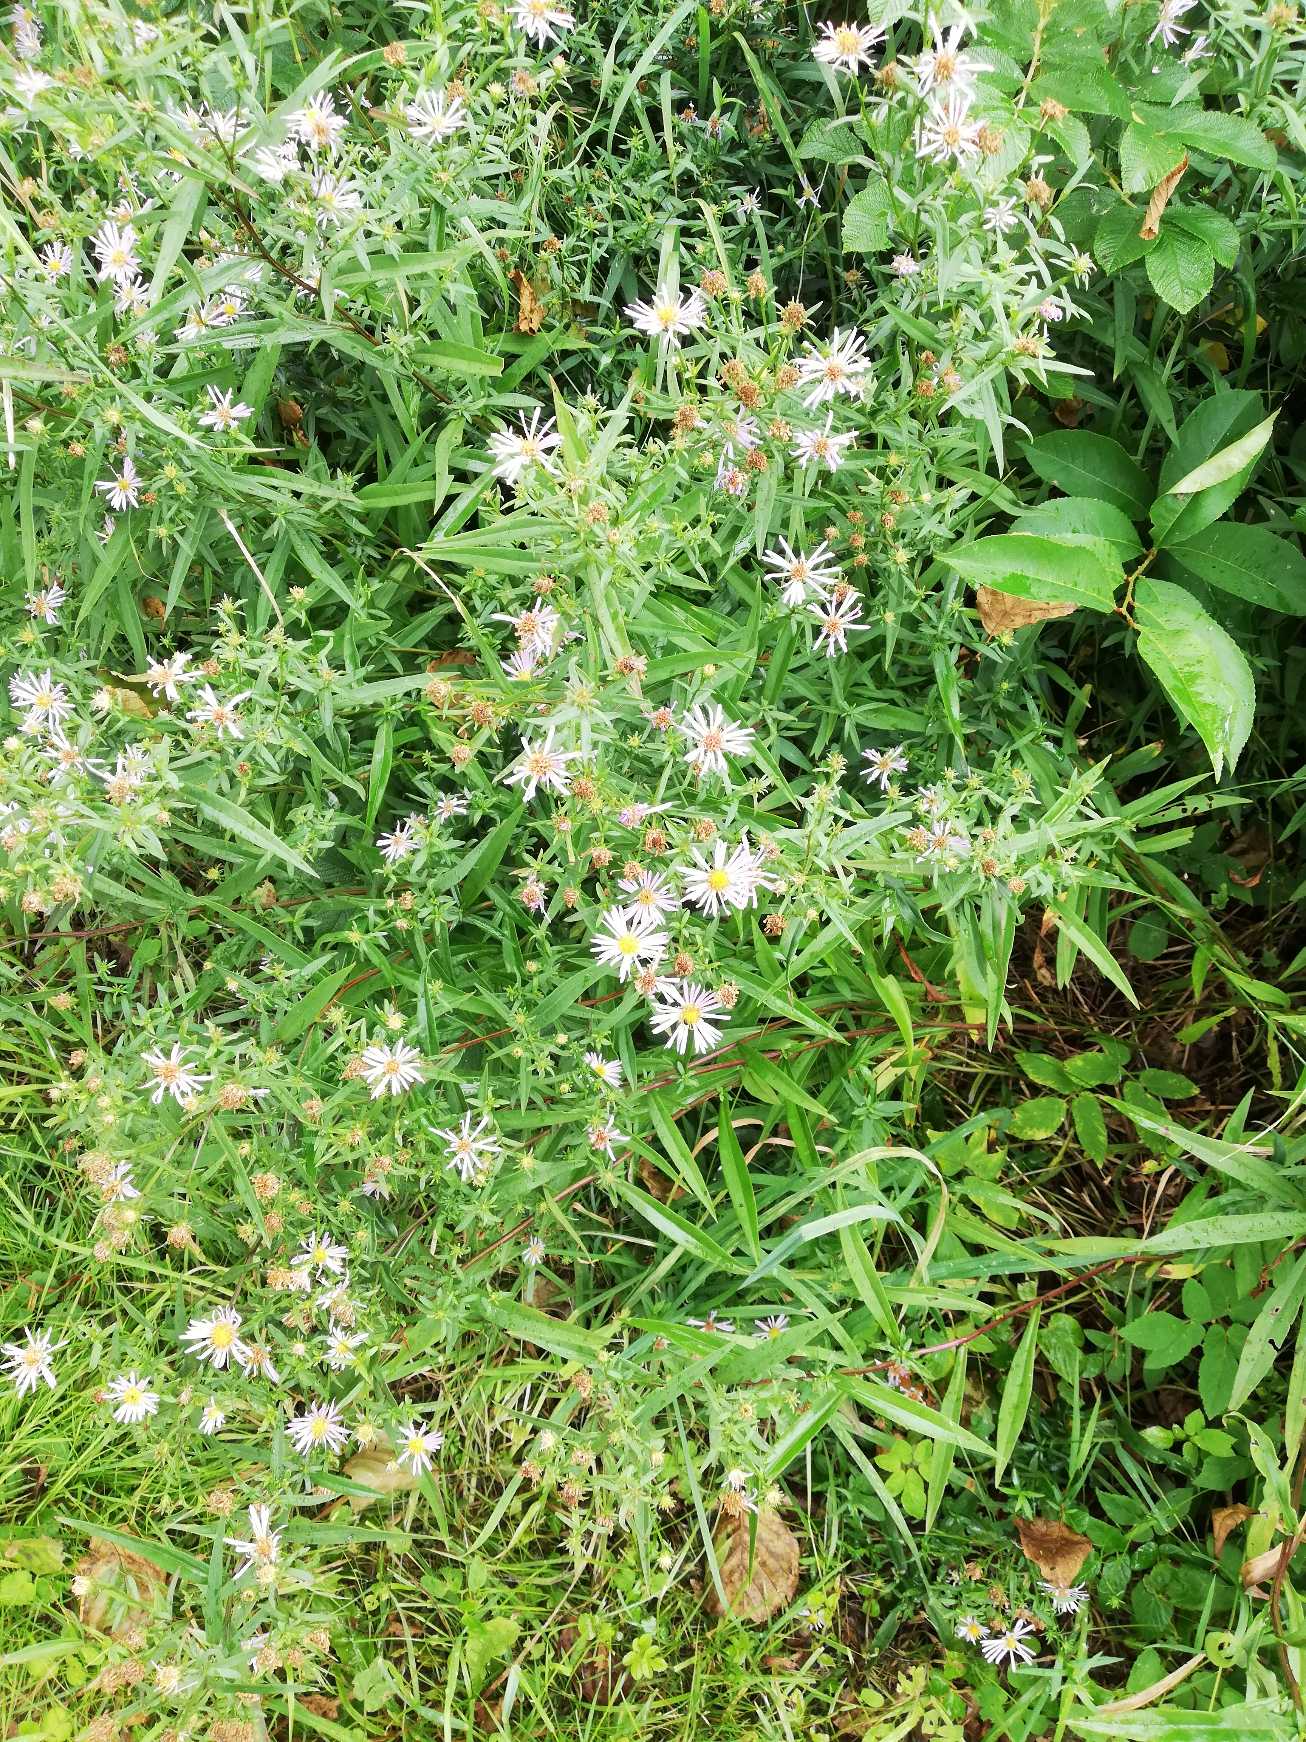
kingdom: Plantae
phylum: Tracheophyta
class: Magnoliopsida
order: Asterales
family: Asteraceae
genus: Symphyotrichum
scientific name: Symphyotrichum
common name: Asters (Symphyotrichum-slægten)
